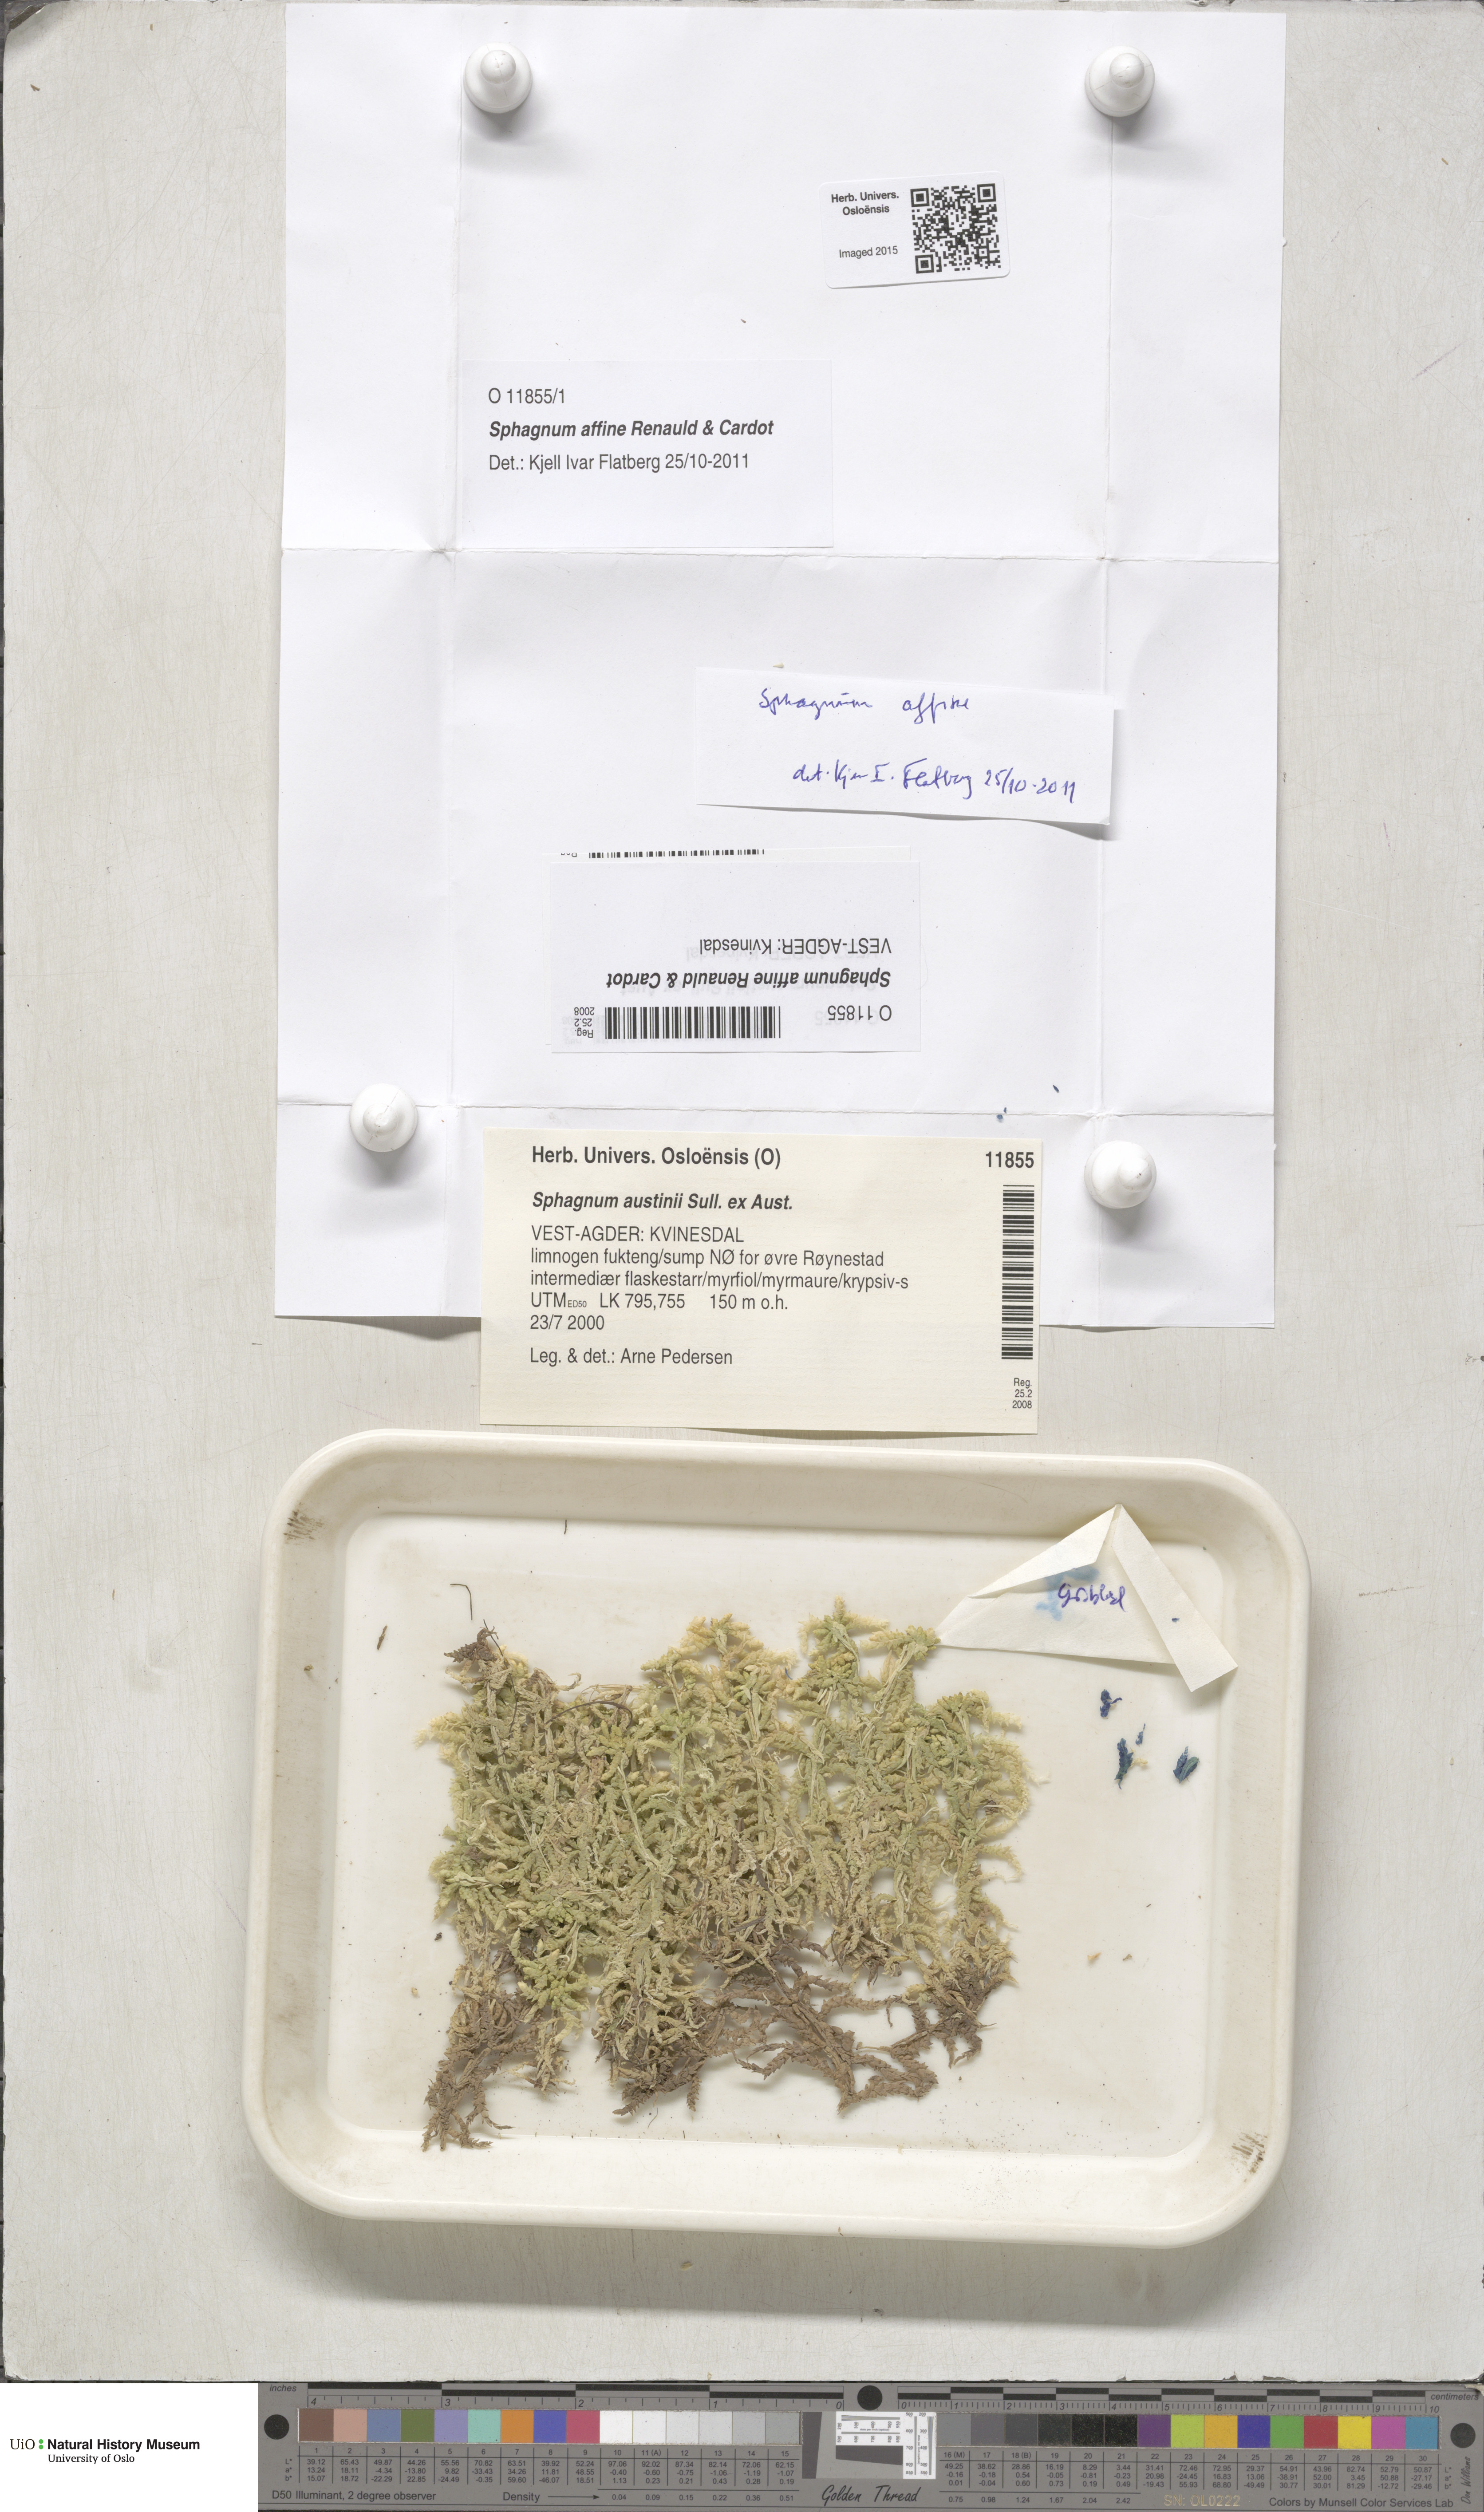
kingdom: Plantae
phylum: Bryophyta
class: Sphagnopsida
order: Sphagnales
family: Sphagnaceae
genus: Sphagnum
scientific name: Sphagnum affine
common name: Imbricate peat moss
